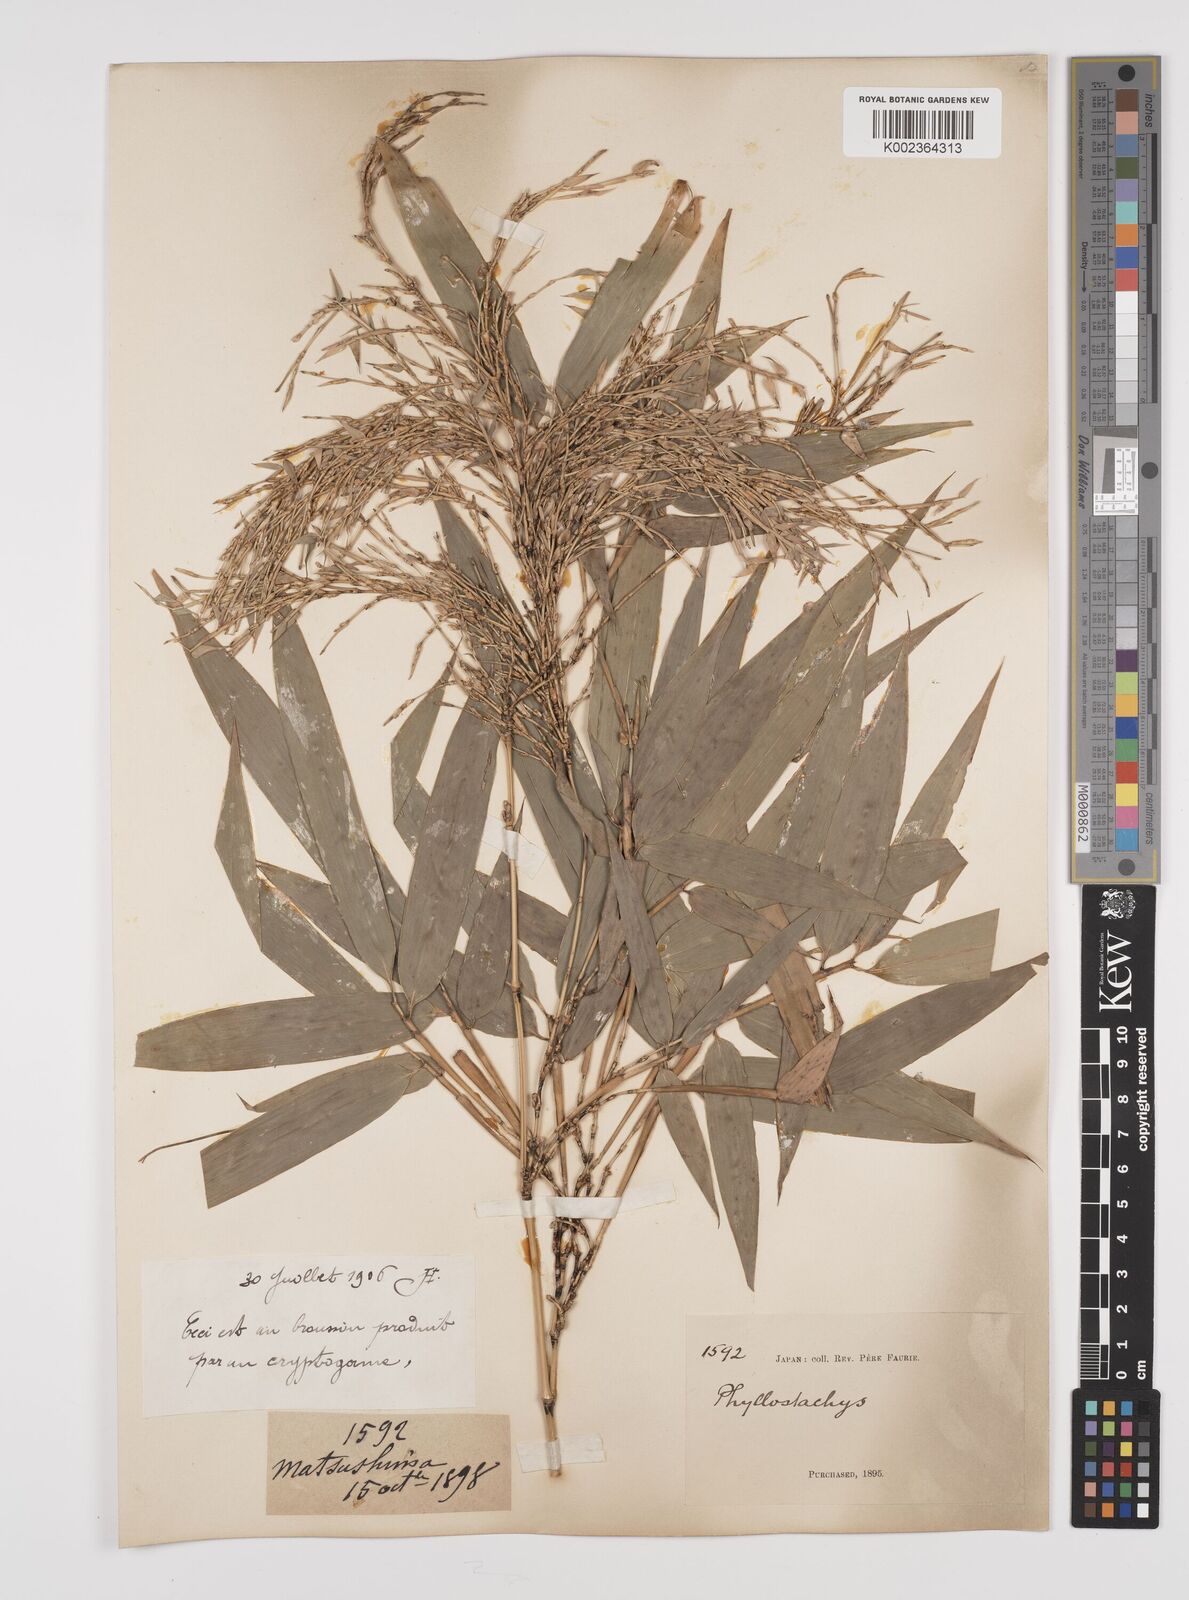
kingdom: Plantae
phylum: Tracheophyta
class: Liliopsida
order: Poales
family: Poaceae
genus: Phyllostachys
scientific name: Phyllostachys
